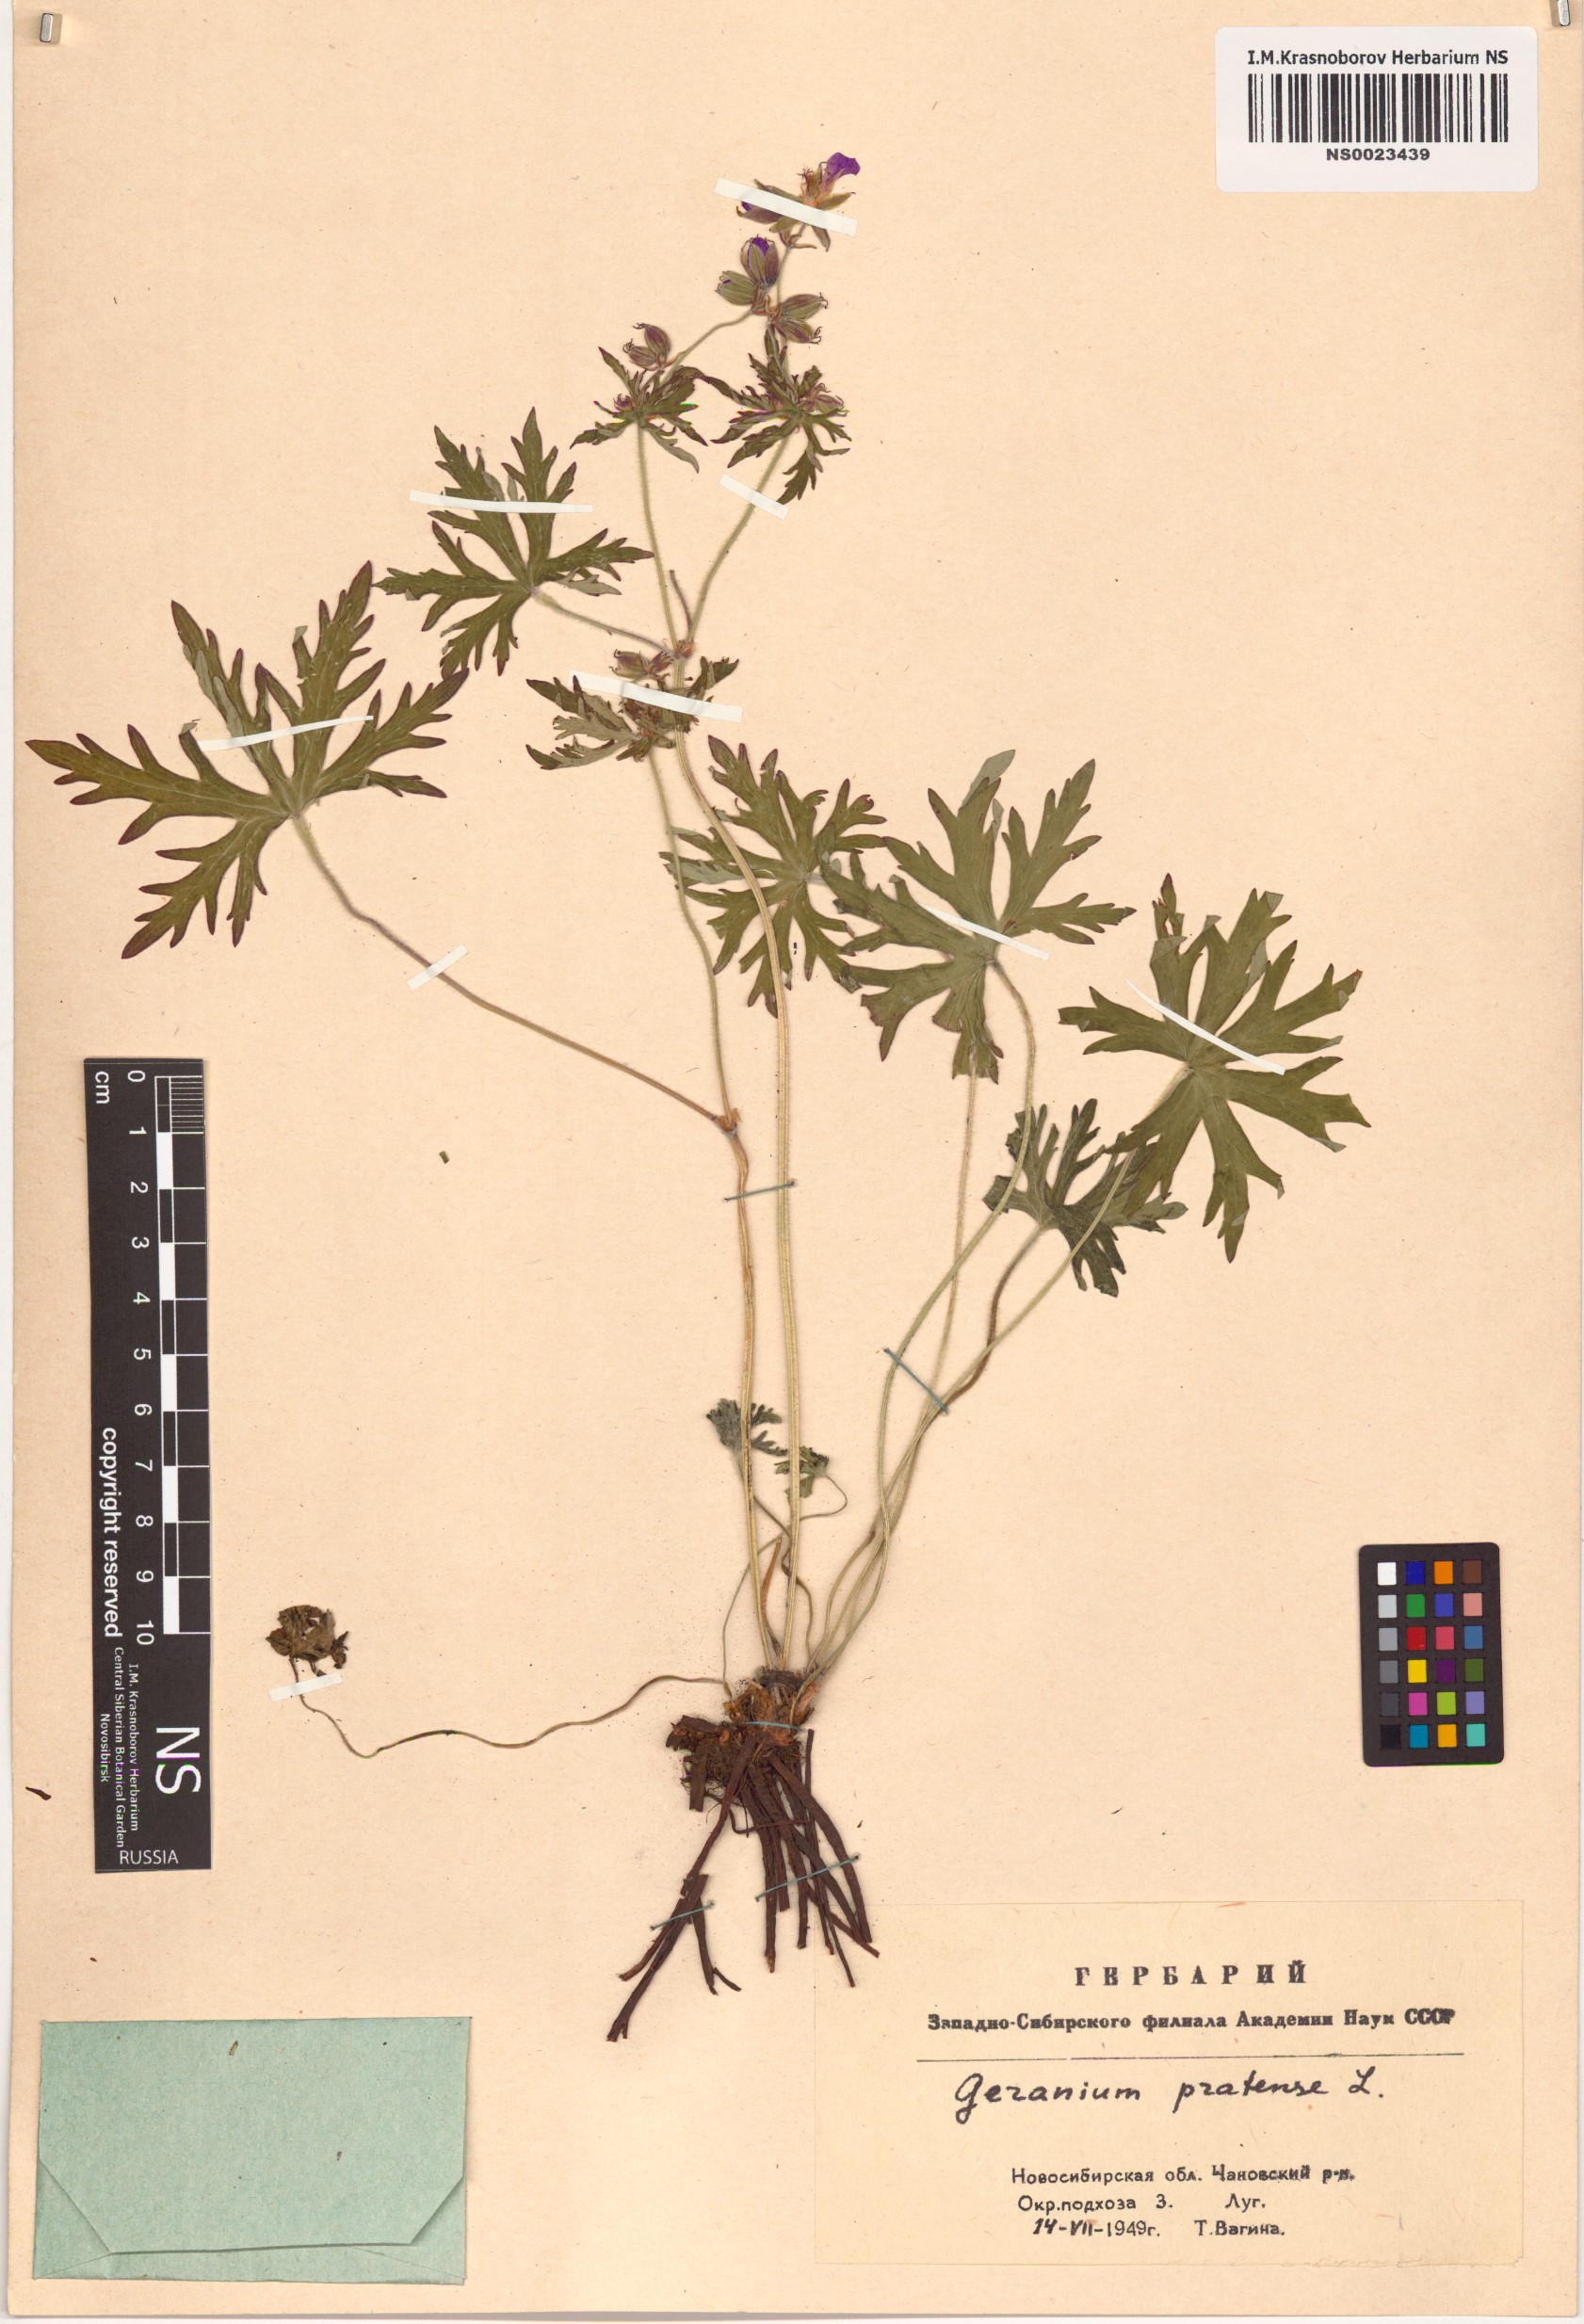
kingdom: Plantae
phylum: Tracheophyta
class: Magnoliopsida
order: Geraniales
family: Geraniaceae
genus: Geranium
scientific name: Geranium pratense
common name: Meadow crane's-bill
